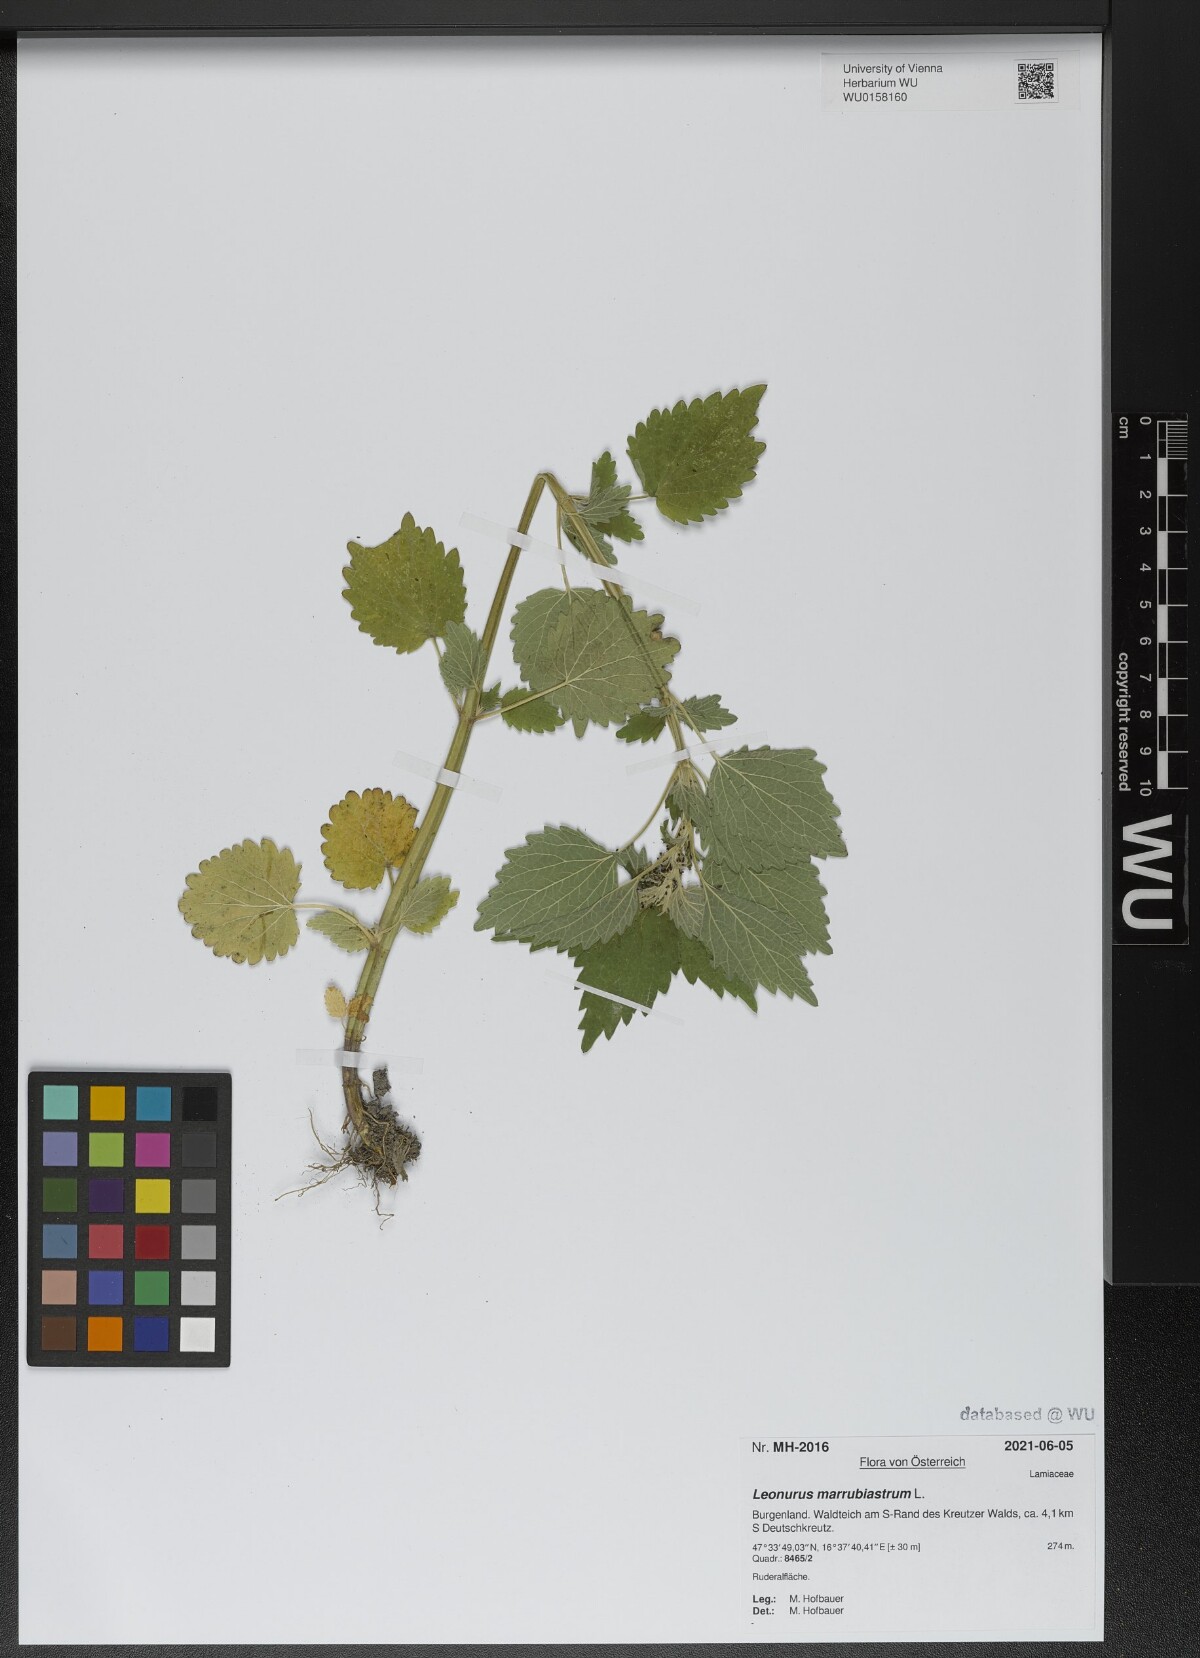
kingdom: Plantae
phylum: Tracheophyta
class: Magnoliopsida
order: Lamiales
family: Lamiaceae
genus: Chaiturus
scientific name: Chaiturus marrubiastrum
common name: Lion's tail
